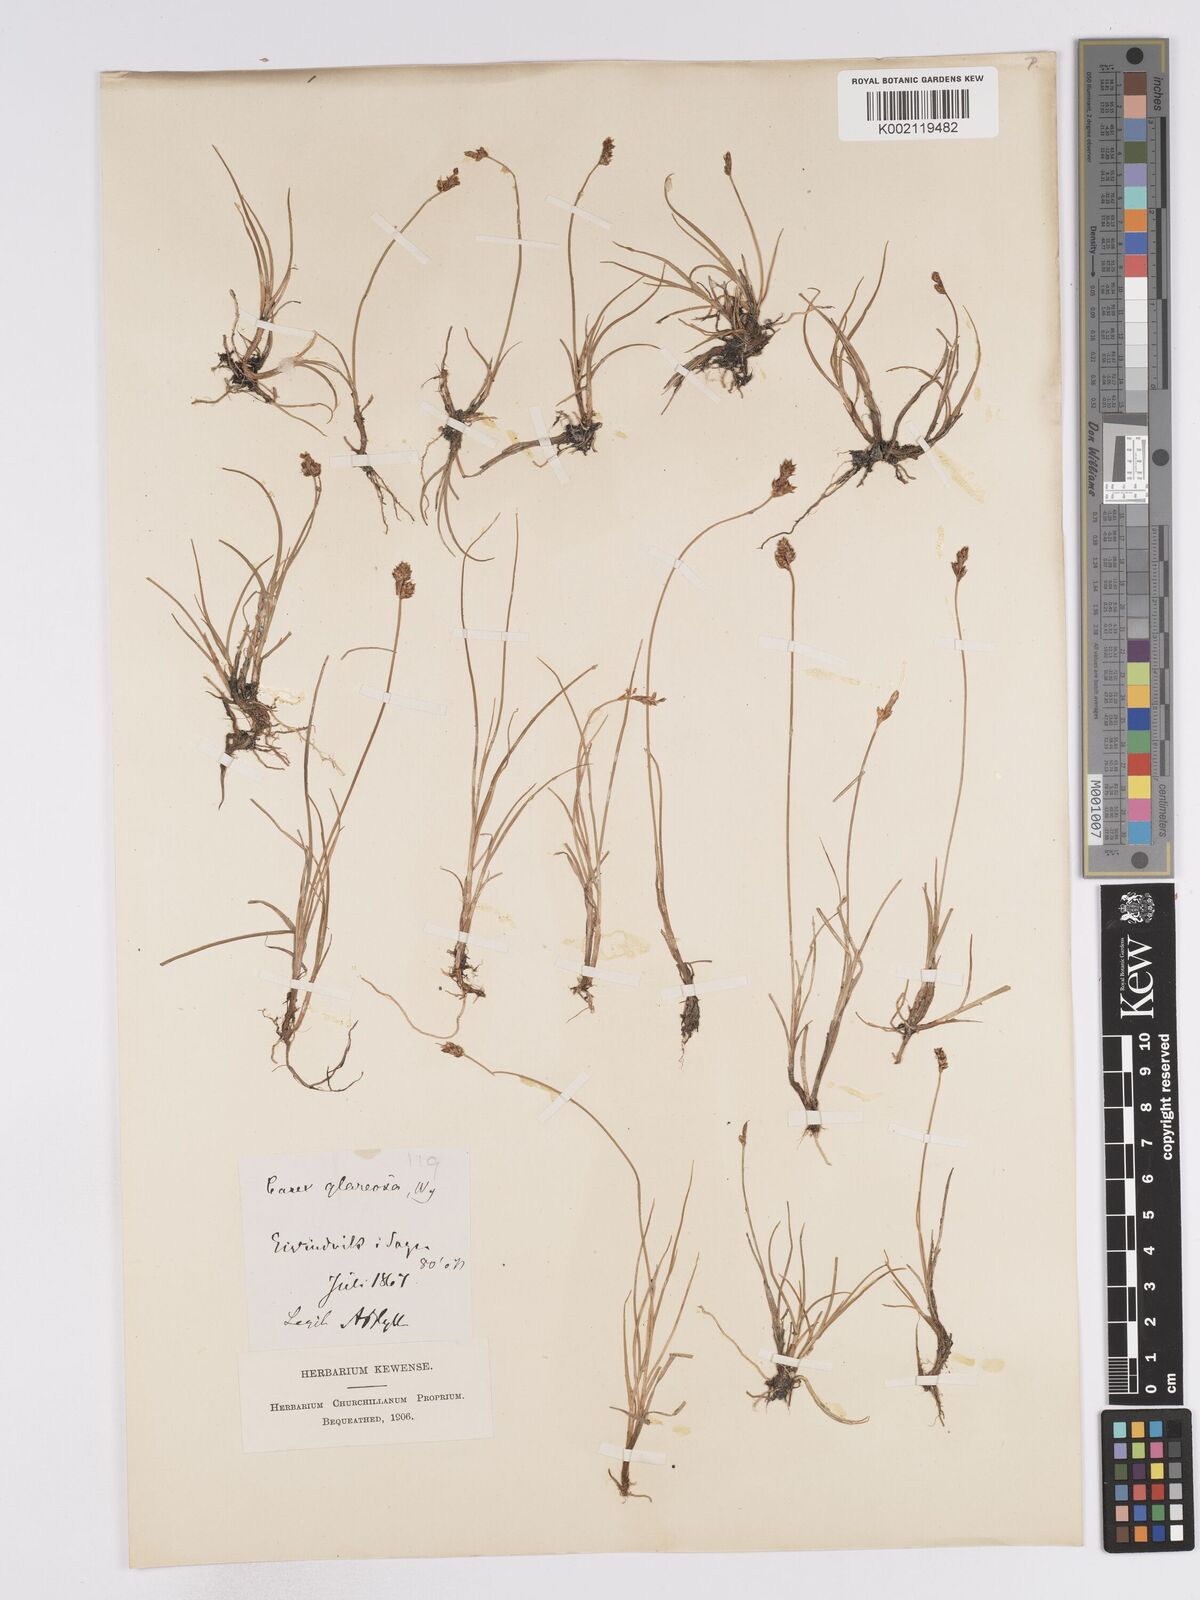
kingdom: Plantae
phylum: Tracheophyta
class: Liliopsida
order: Poales
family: Cyperaceae
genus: Carex
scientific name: Carex glareosa
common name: Clustered sedge
